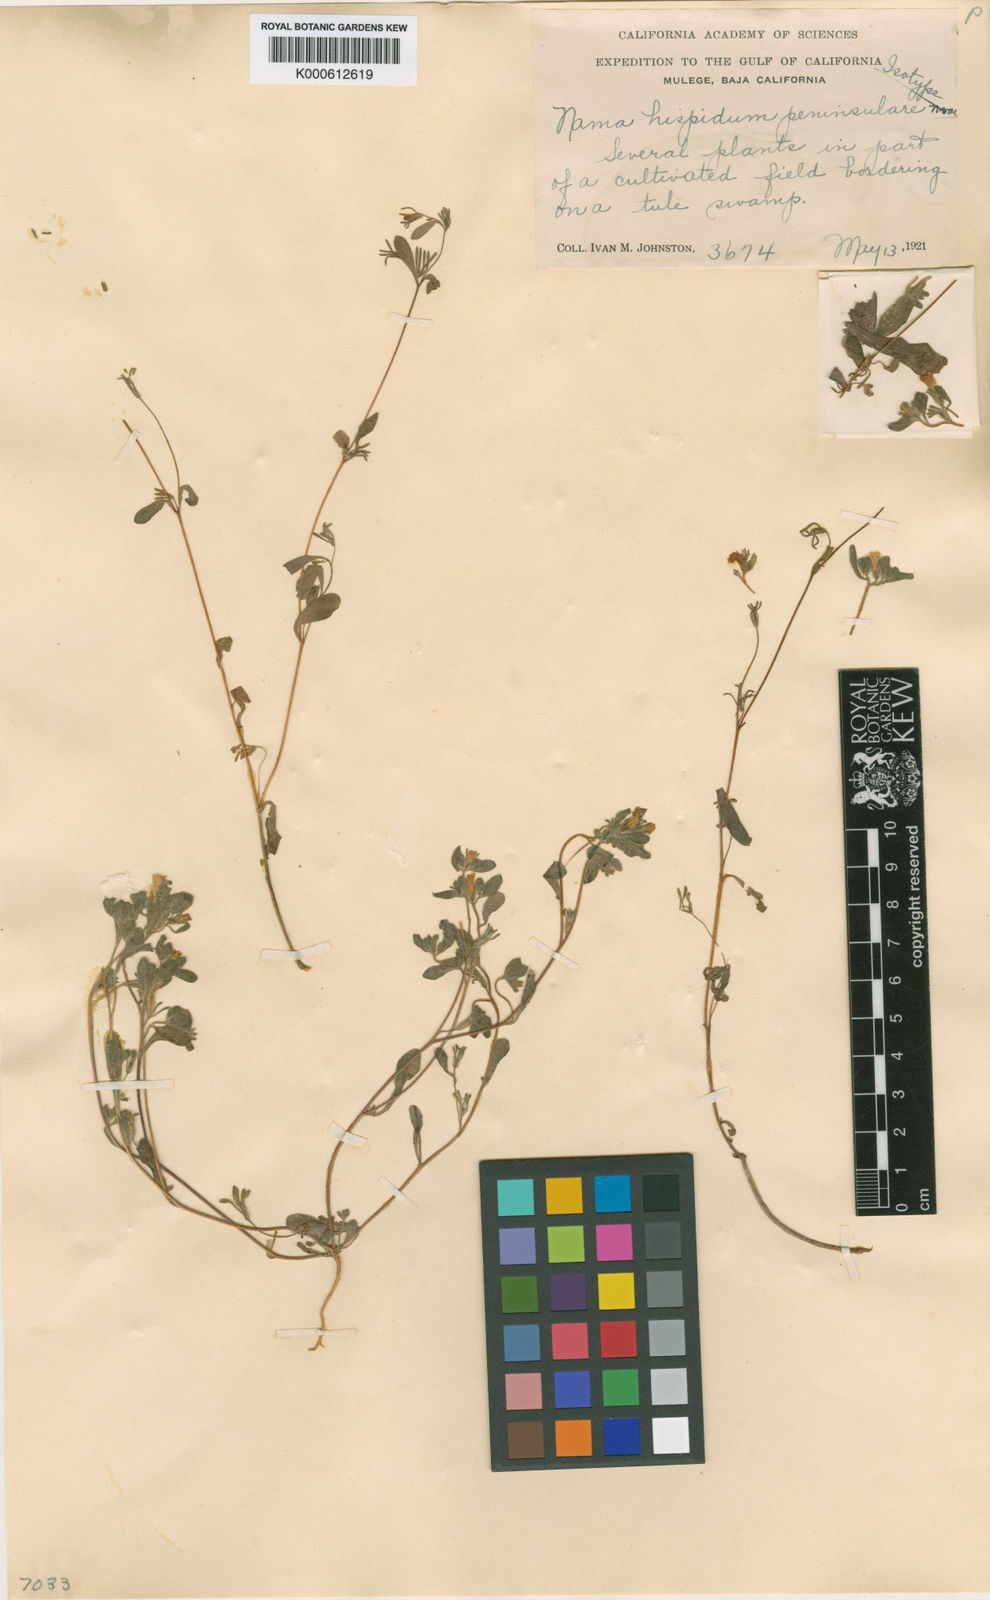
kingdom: Plantae
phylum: Tracheophyta
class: Magnoliopsida
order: Boraginales
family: Namaceae
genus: Nama
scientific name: Nama hispida
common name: Bristly nama
